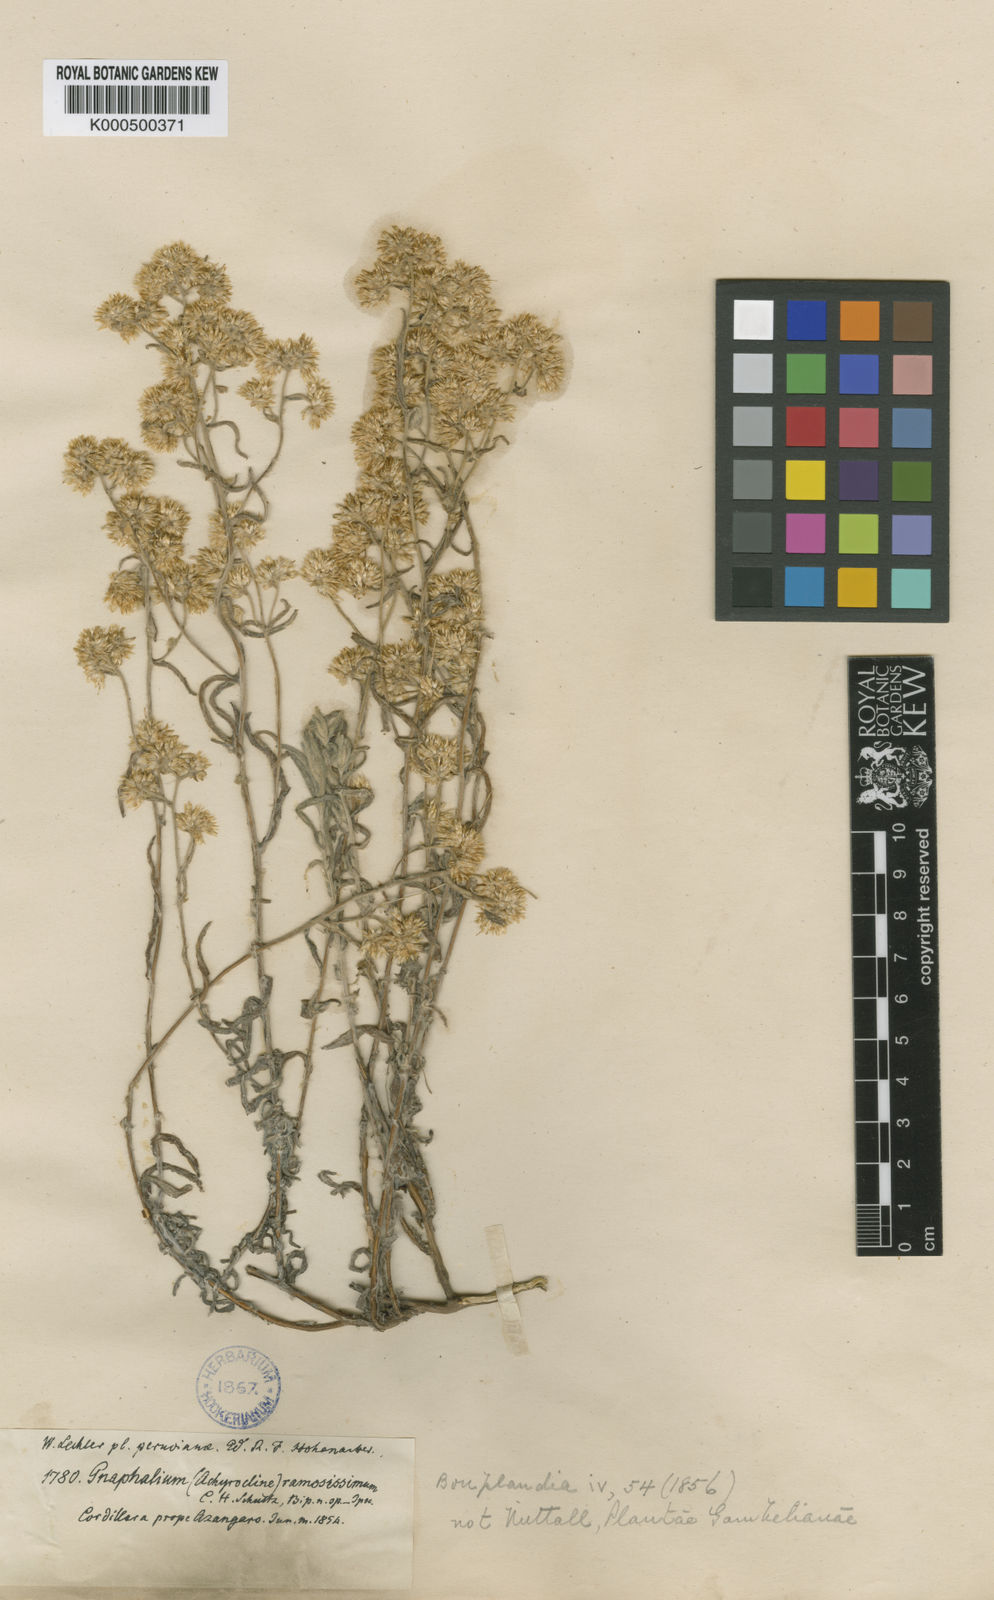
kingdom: Plantae
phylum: Tracheophyta
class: Magnoliopsida
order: Asterales
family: Asteraceae
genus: Achyrocline
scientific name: Achyrocline
